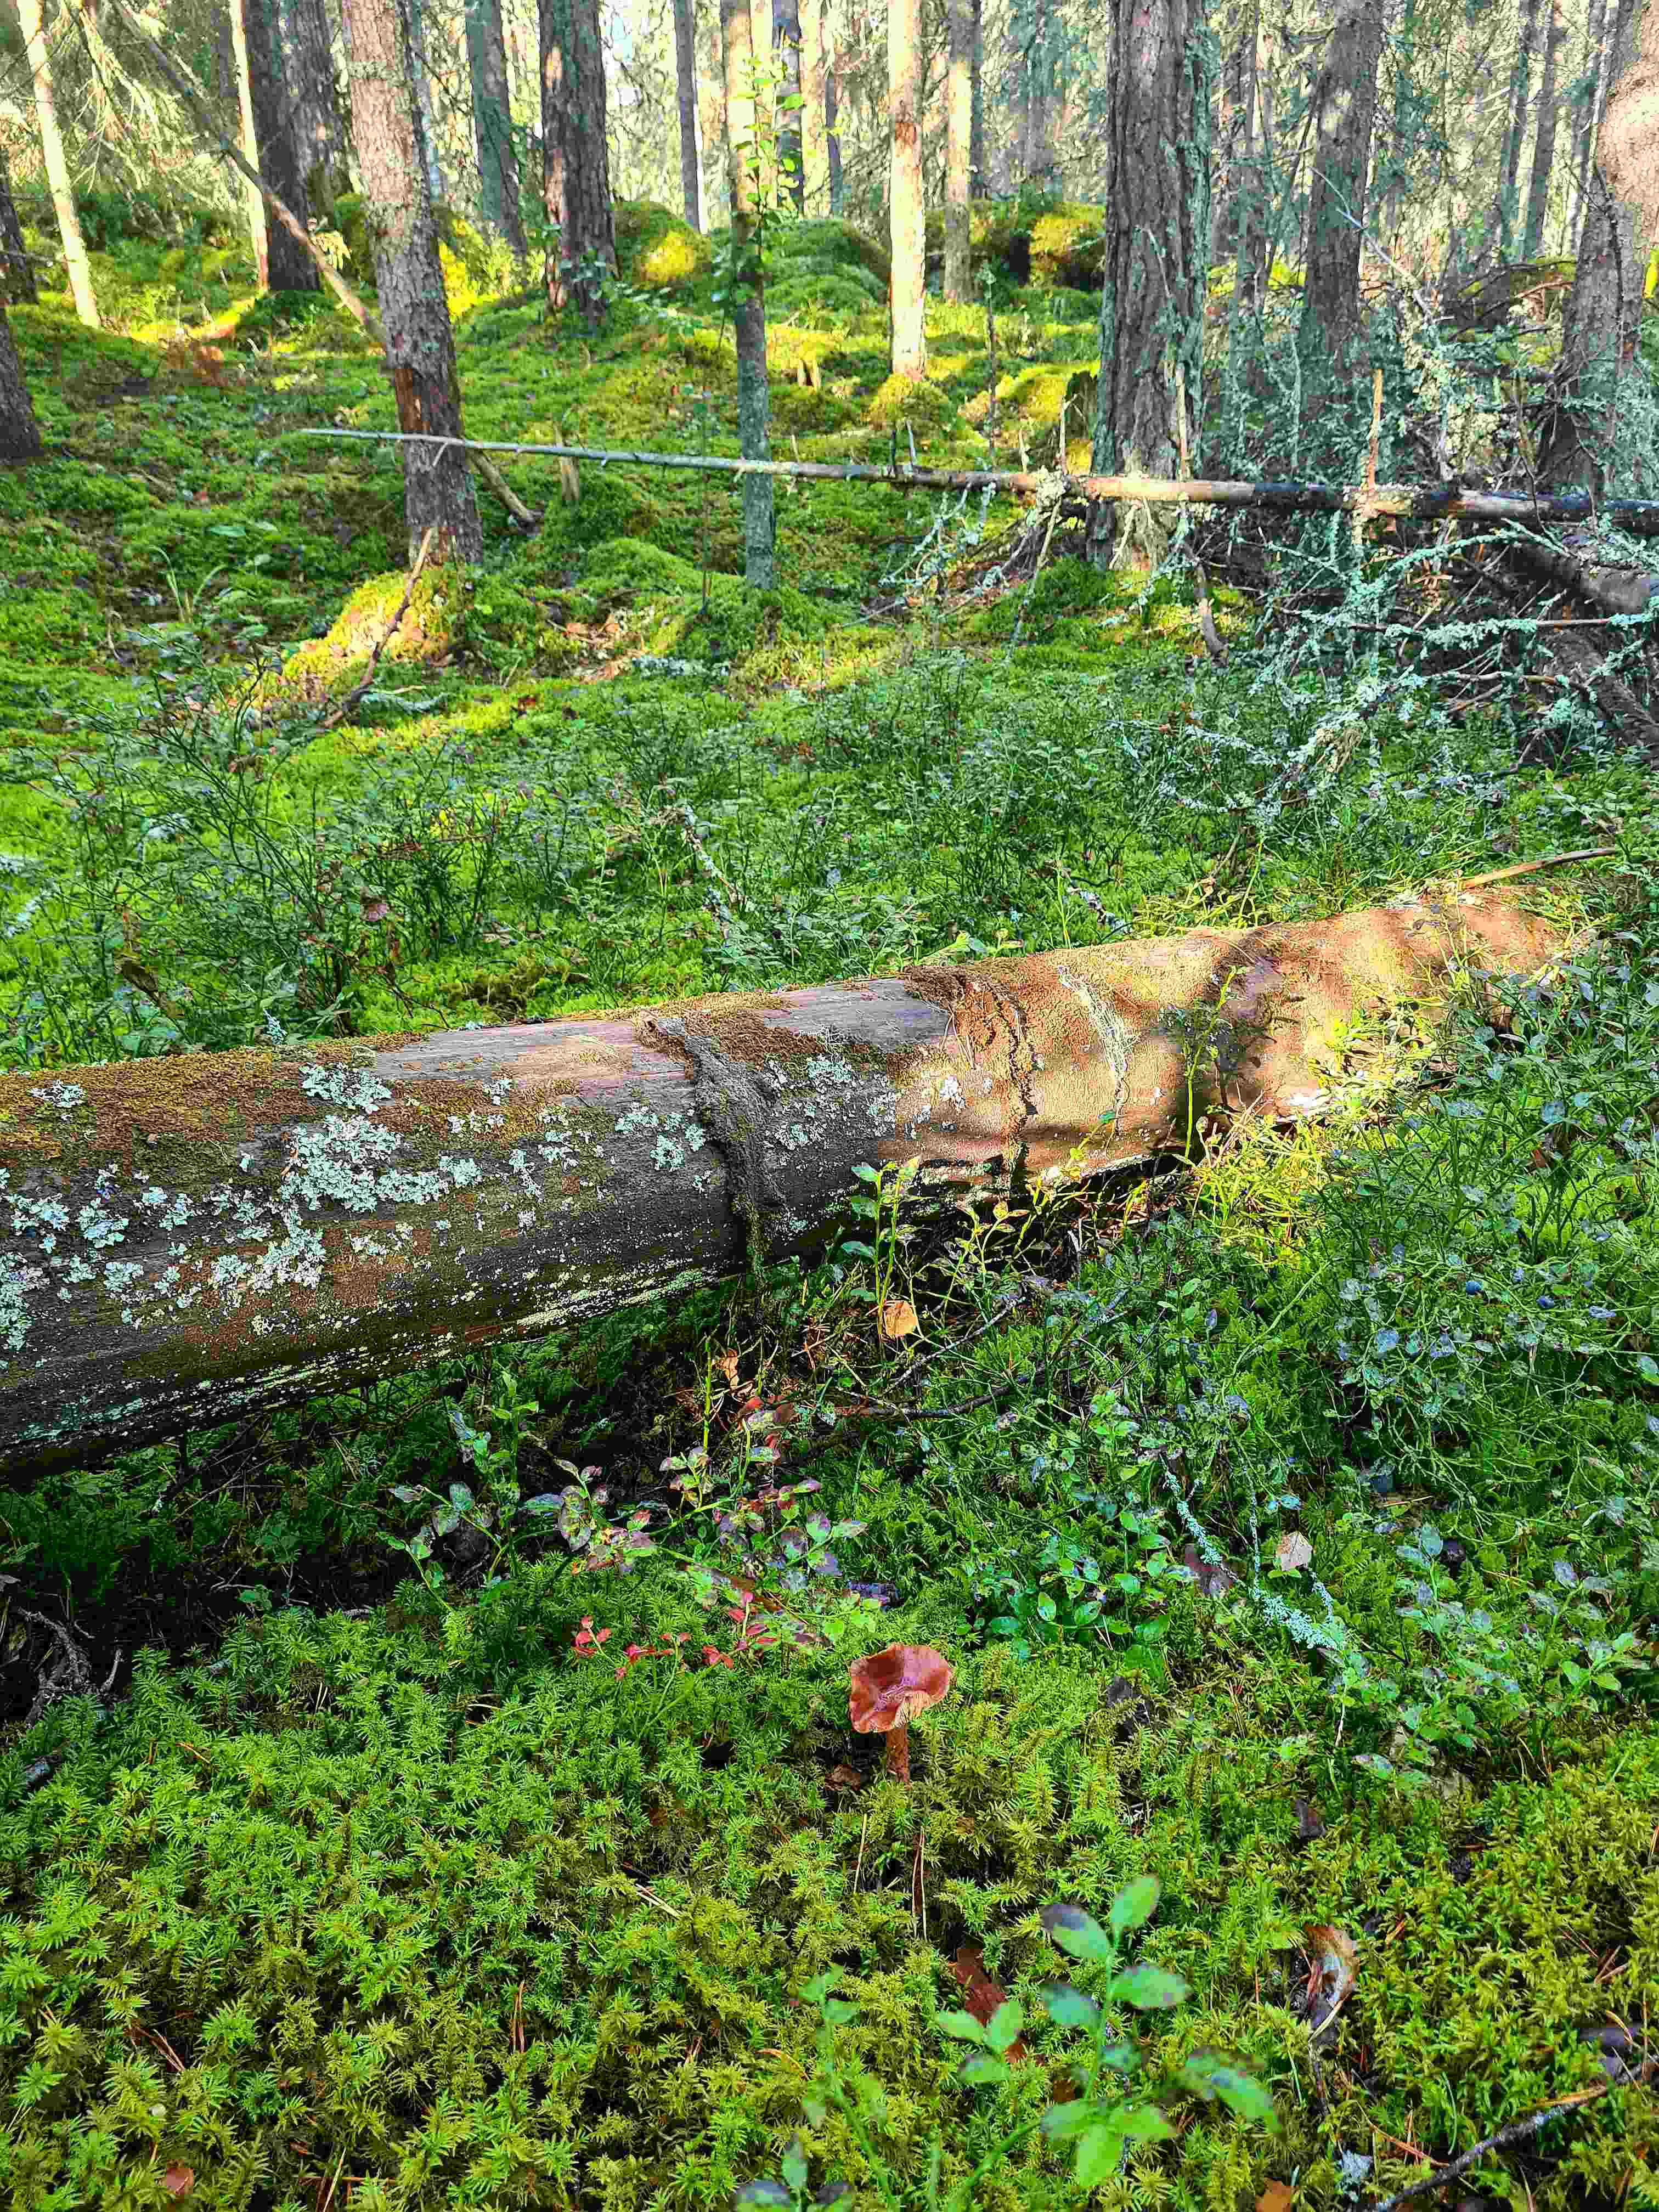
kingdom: Fungi
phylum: Basidiomycota
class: Agaricomycetes
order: Russulales
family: Russulaceae
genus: Lactarius
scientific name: Lactarius rufus
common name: rødbrun mælkehat
